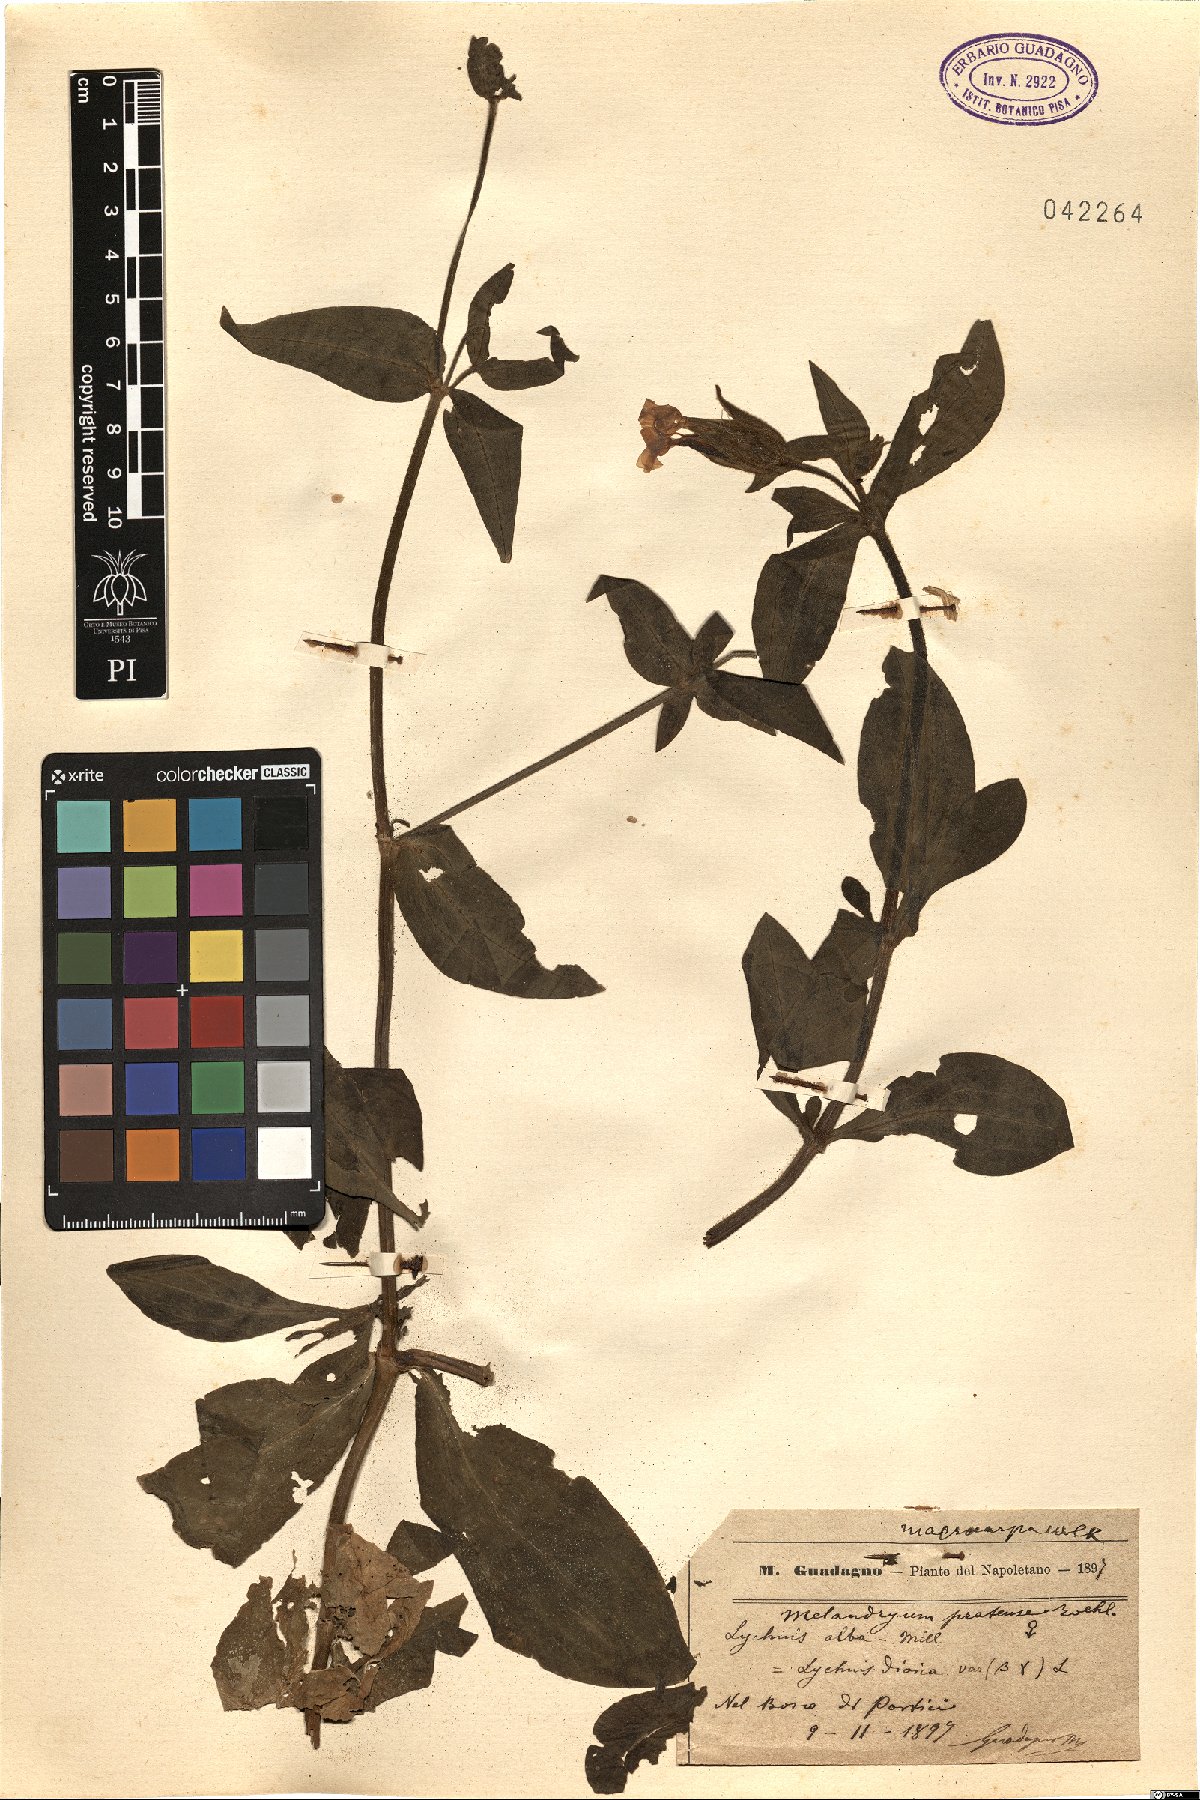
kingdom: Plantae
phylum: Tracheophyta
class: Magnoliopsida
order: Caryophyllales
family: Caryophyllaceae
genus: Silene
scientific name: Silene latifolia
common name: White campion
